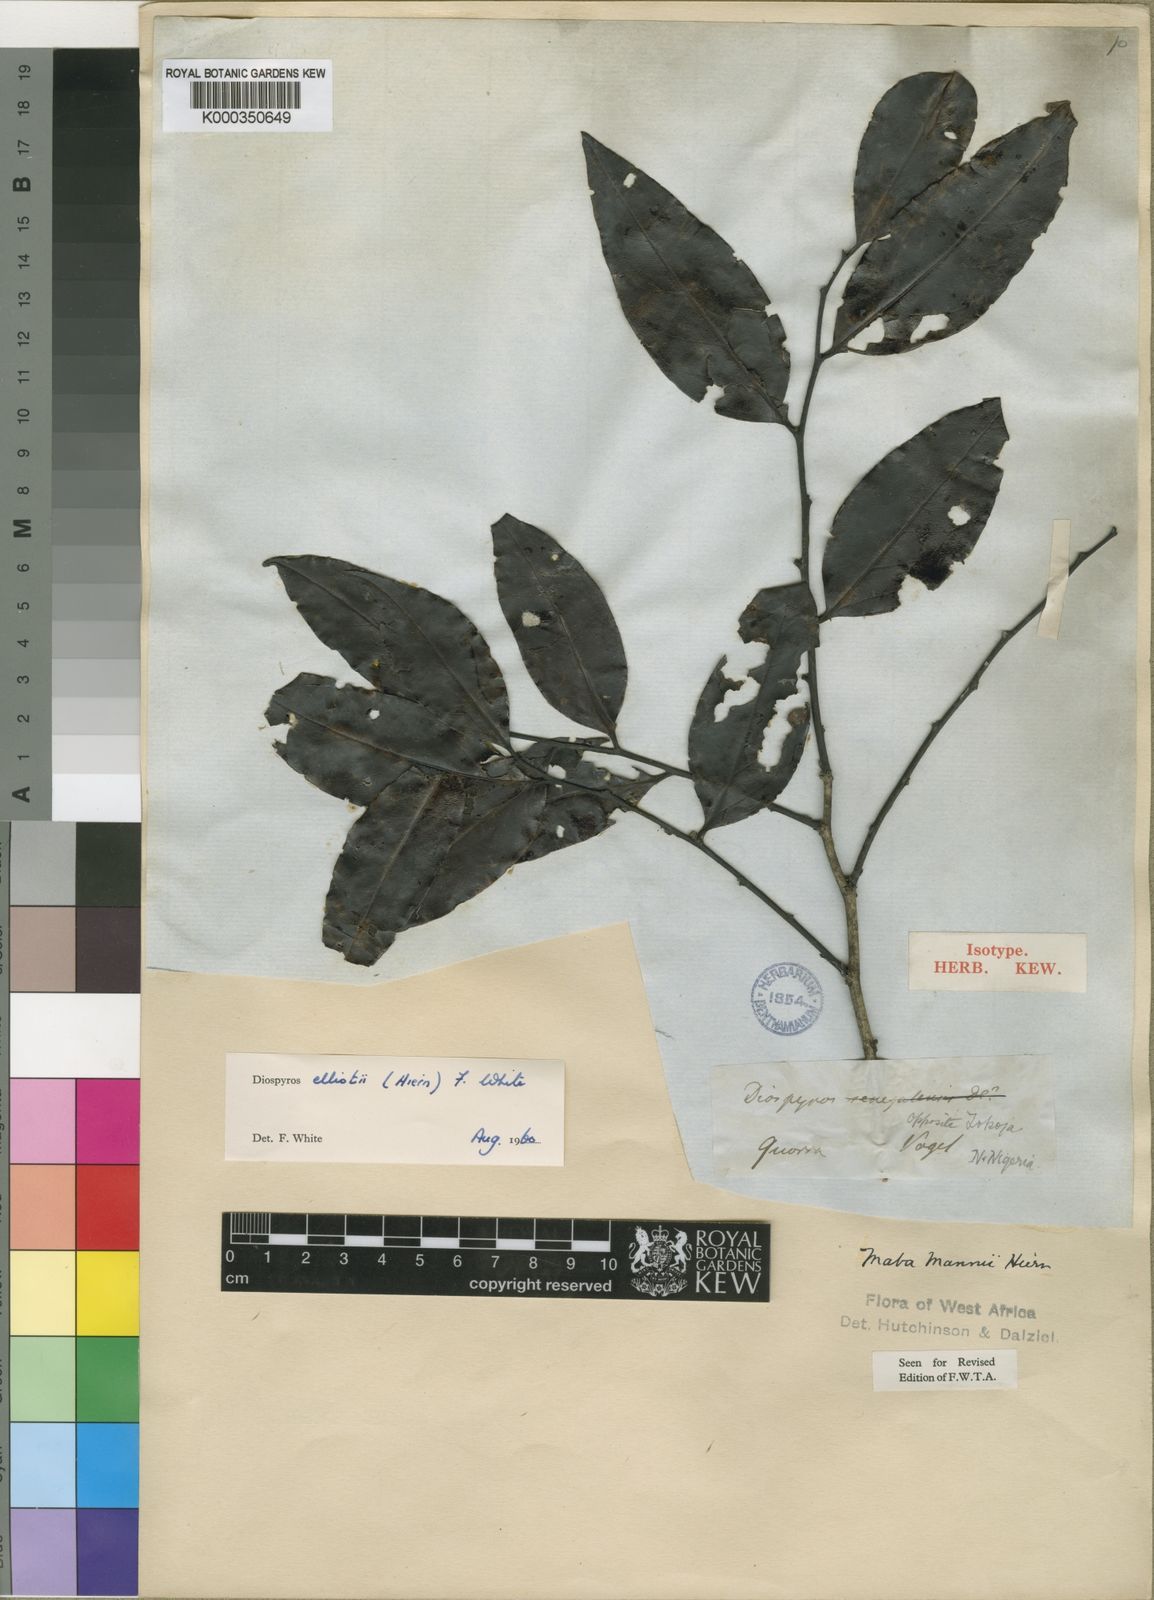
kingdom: Plantae
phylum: Tracheophyta
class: Magnoliopsida
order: Ericales
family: Ebenaceae
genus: Diospyros
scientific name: Diospyros elliotii
